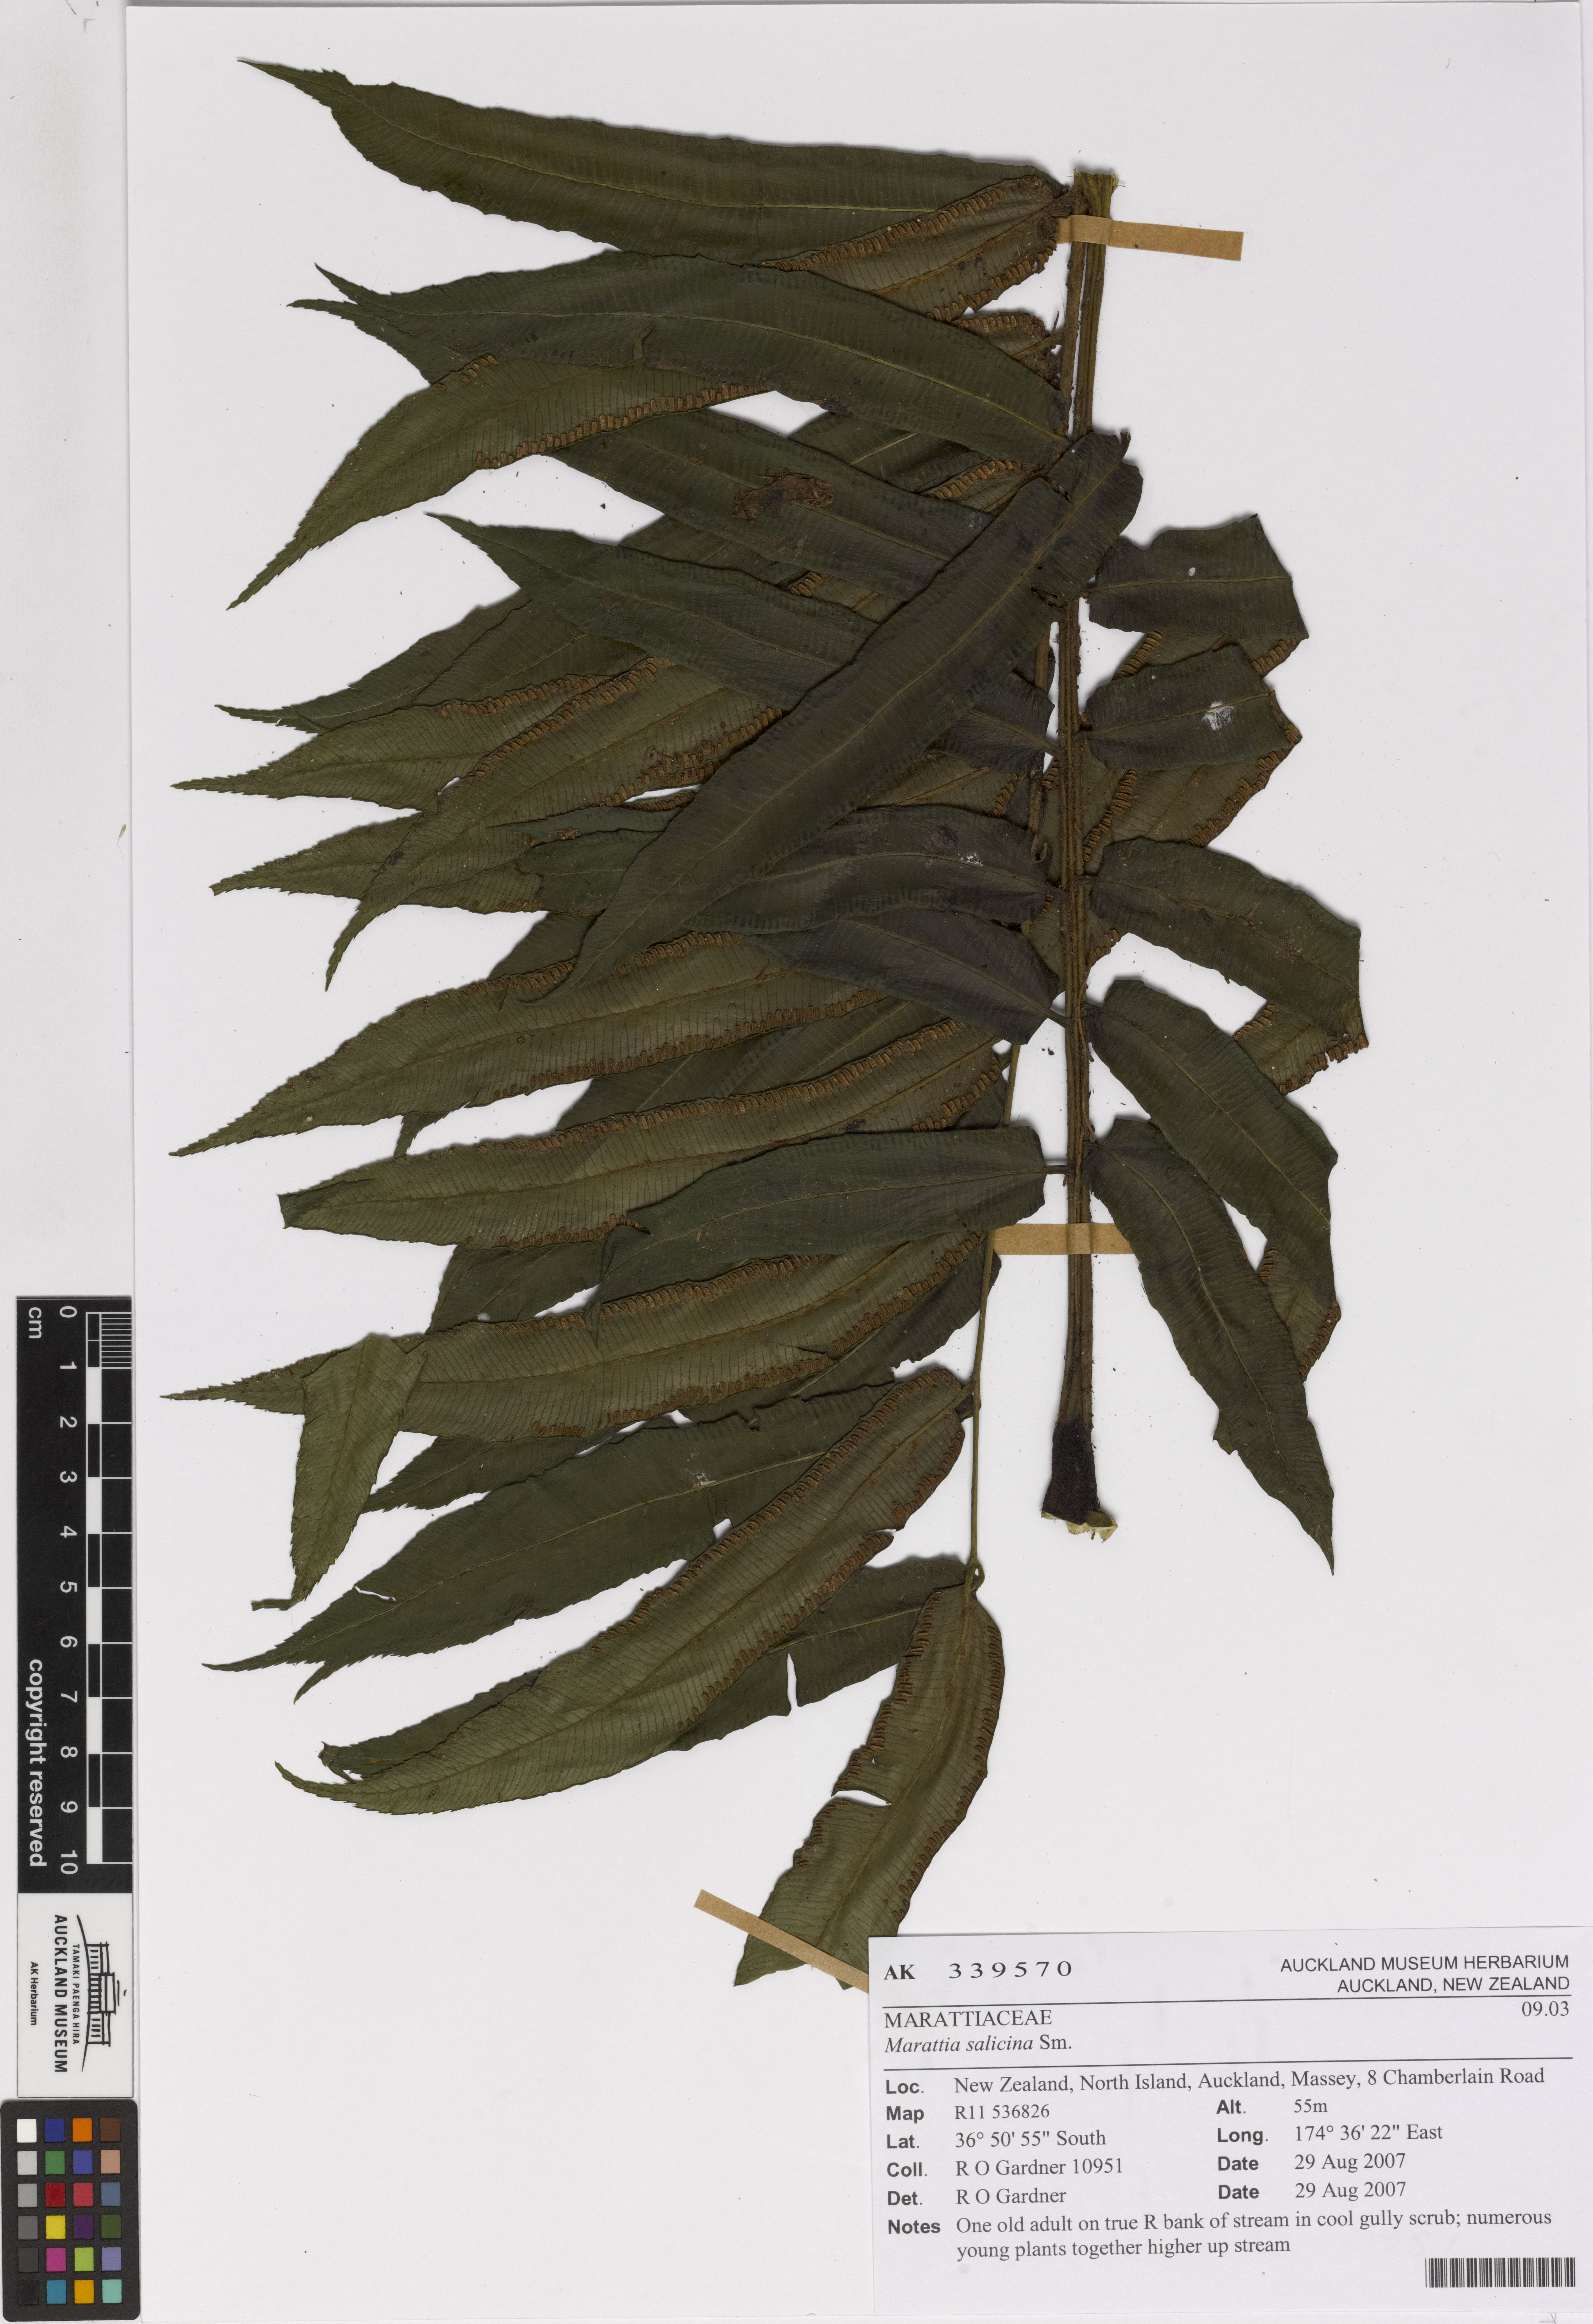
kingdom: Plantae
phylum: Tracheophyta
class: Polypodiopsida
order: Marattiales
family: Marattiaceae
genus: Ptisana
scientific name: Ptisana salicina
